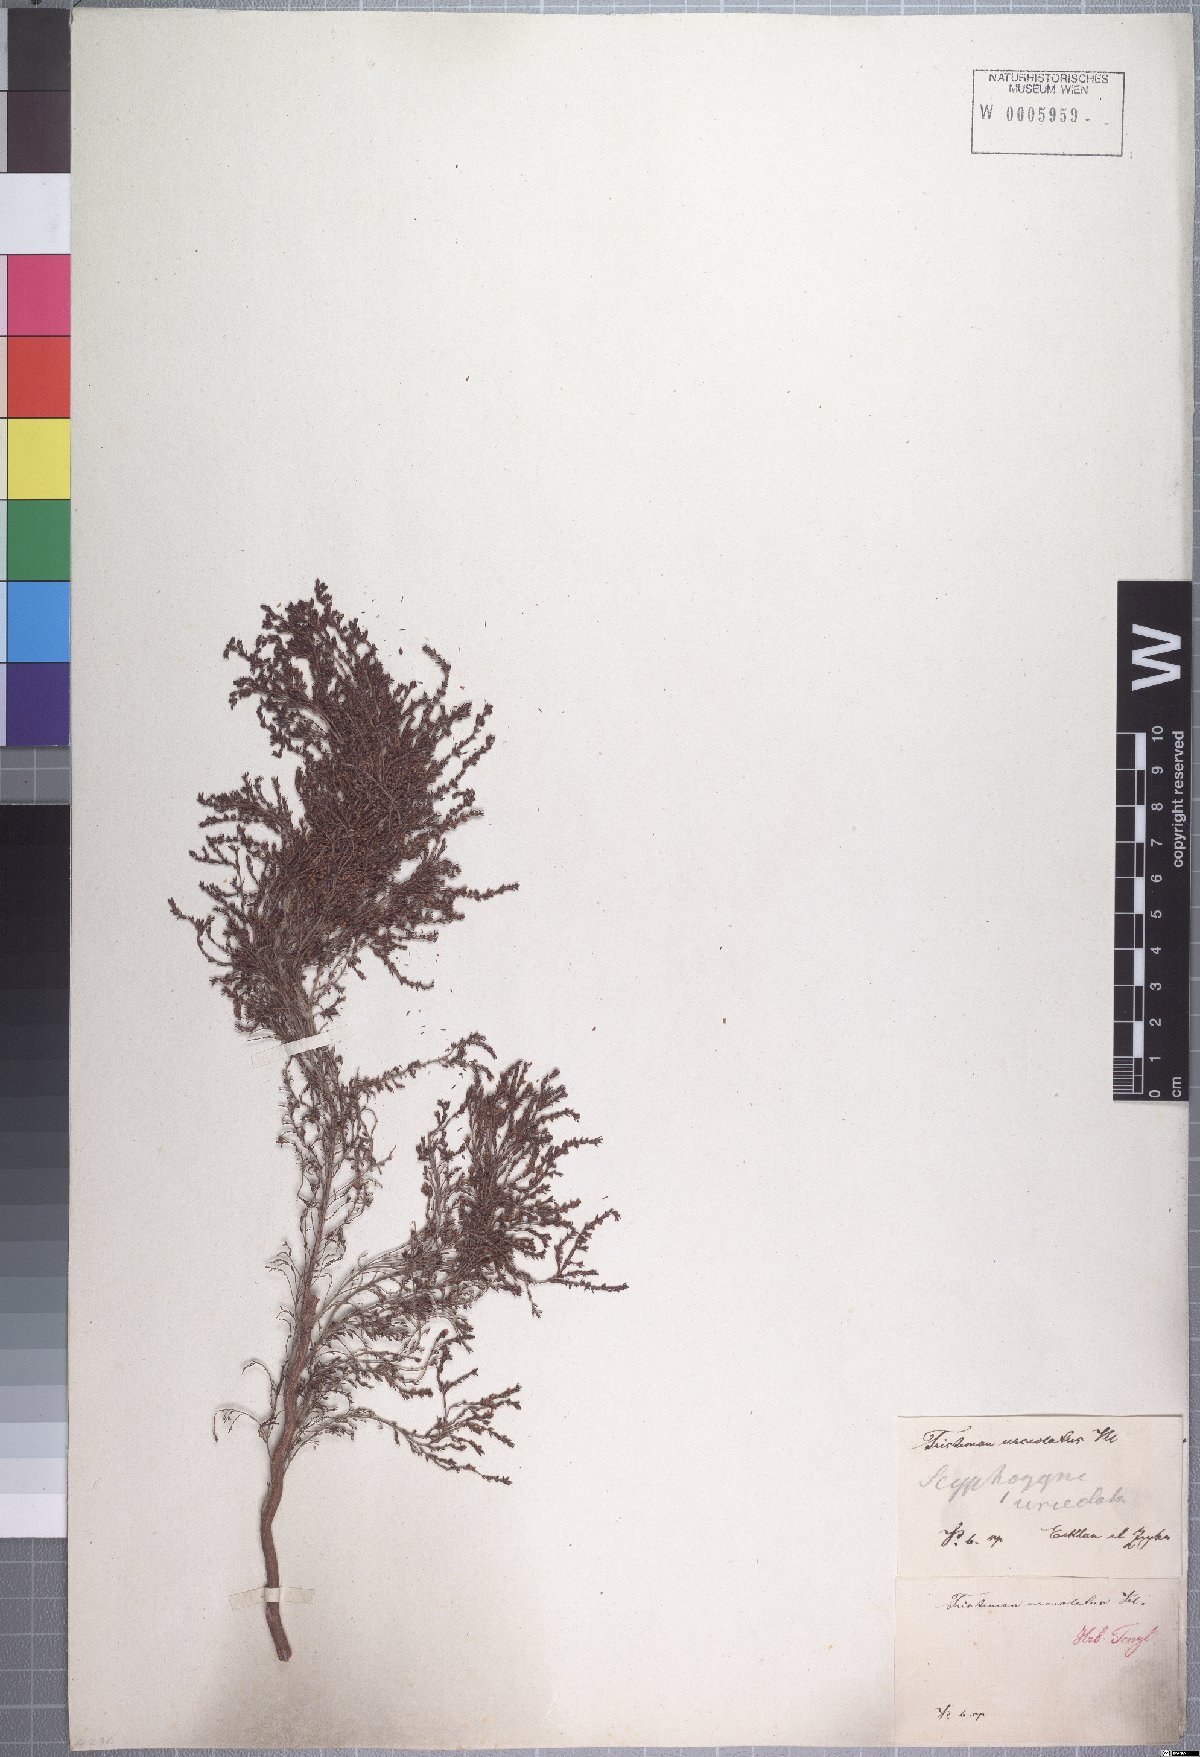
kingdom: Plantae
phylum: Tracheophyta
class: Magnoliopsida
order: Ericales
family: Ericaceae
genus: Erica
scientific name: Erica urceolata
